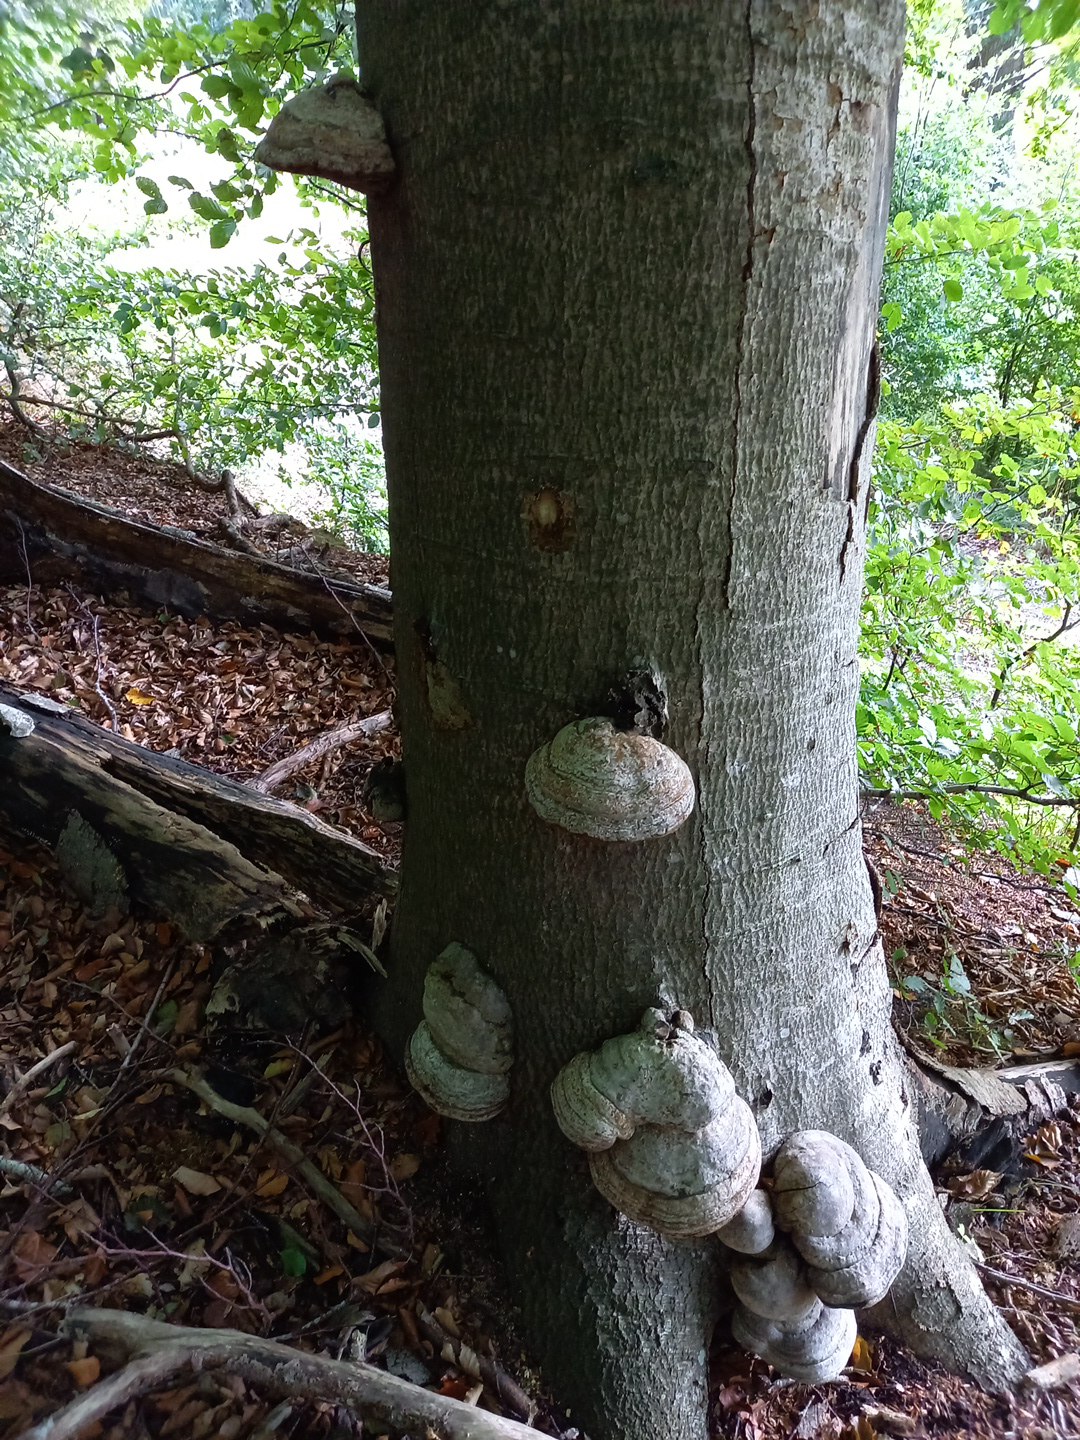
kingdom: Fungi
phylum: Basidiomycota
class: Agaricomycetes
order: Polyporales
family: Polyporaceae
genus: Fomes
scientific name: Fomes fomentarius
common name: tøndersvamp
